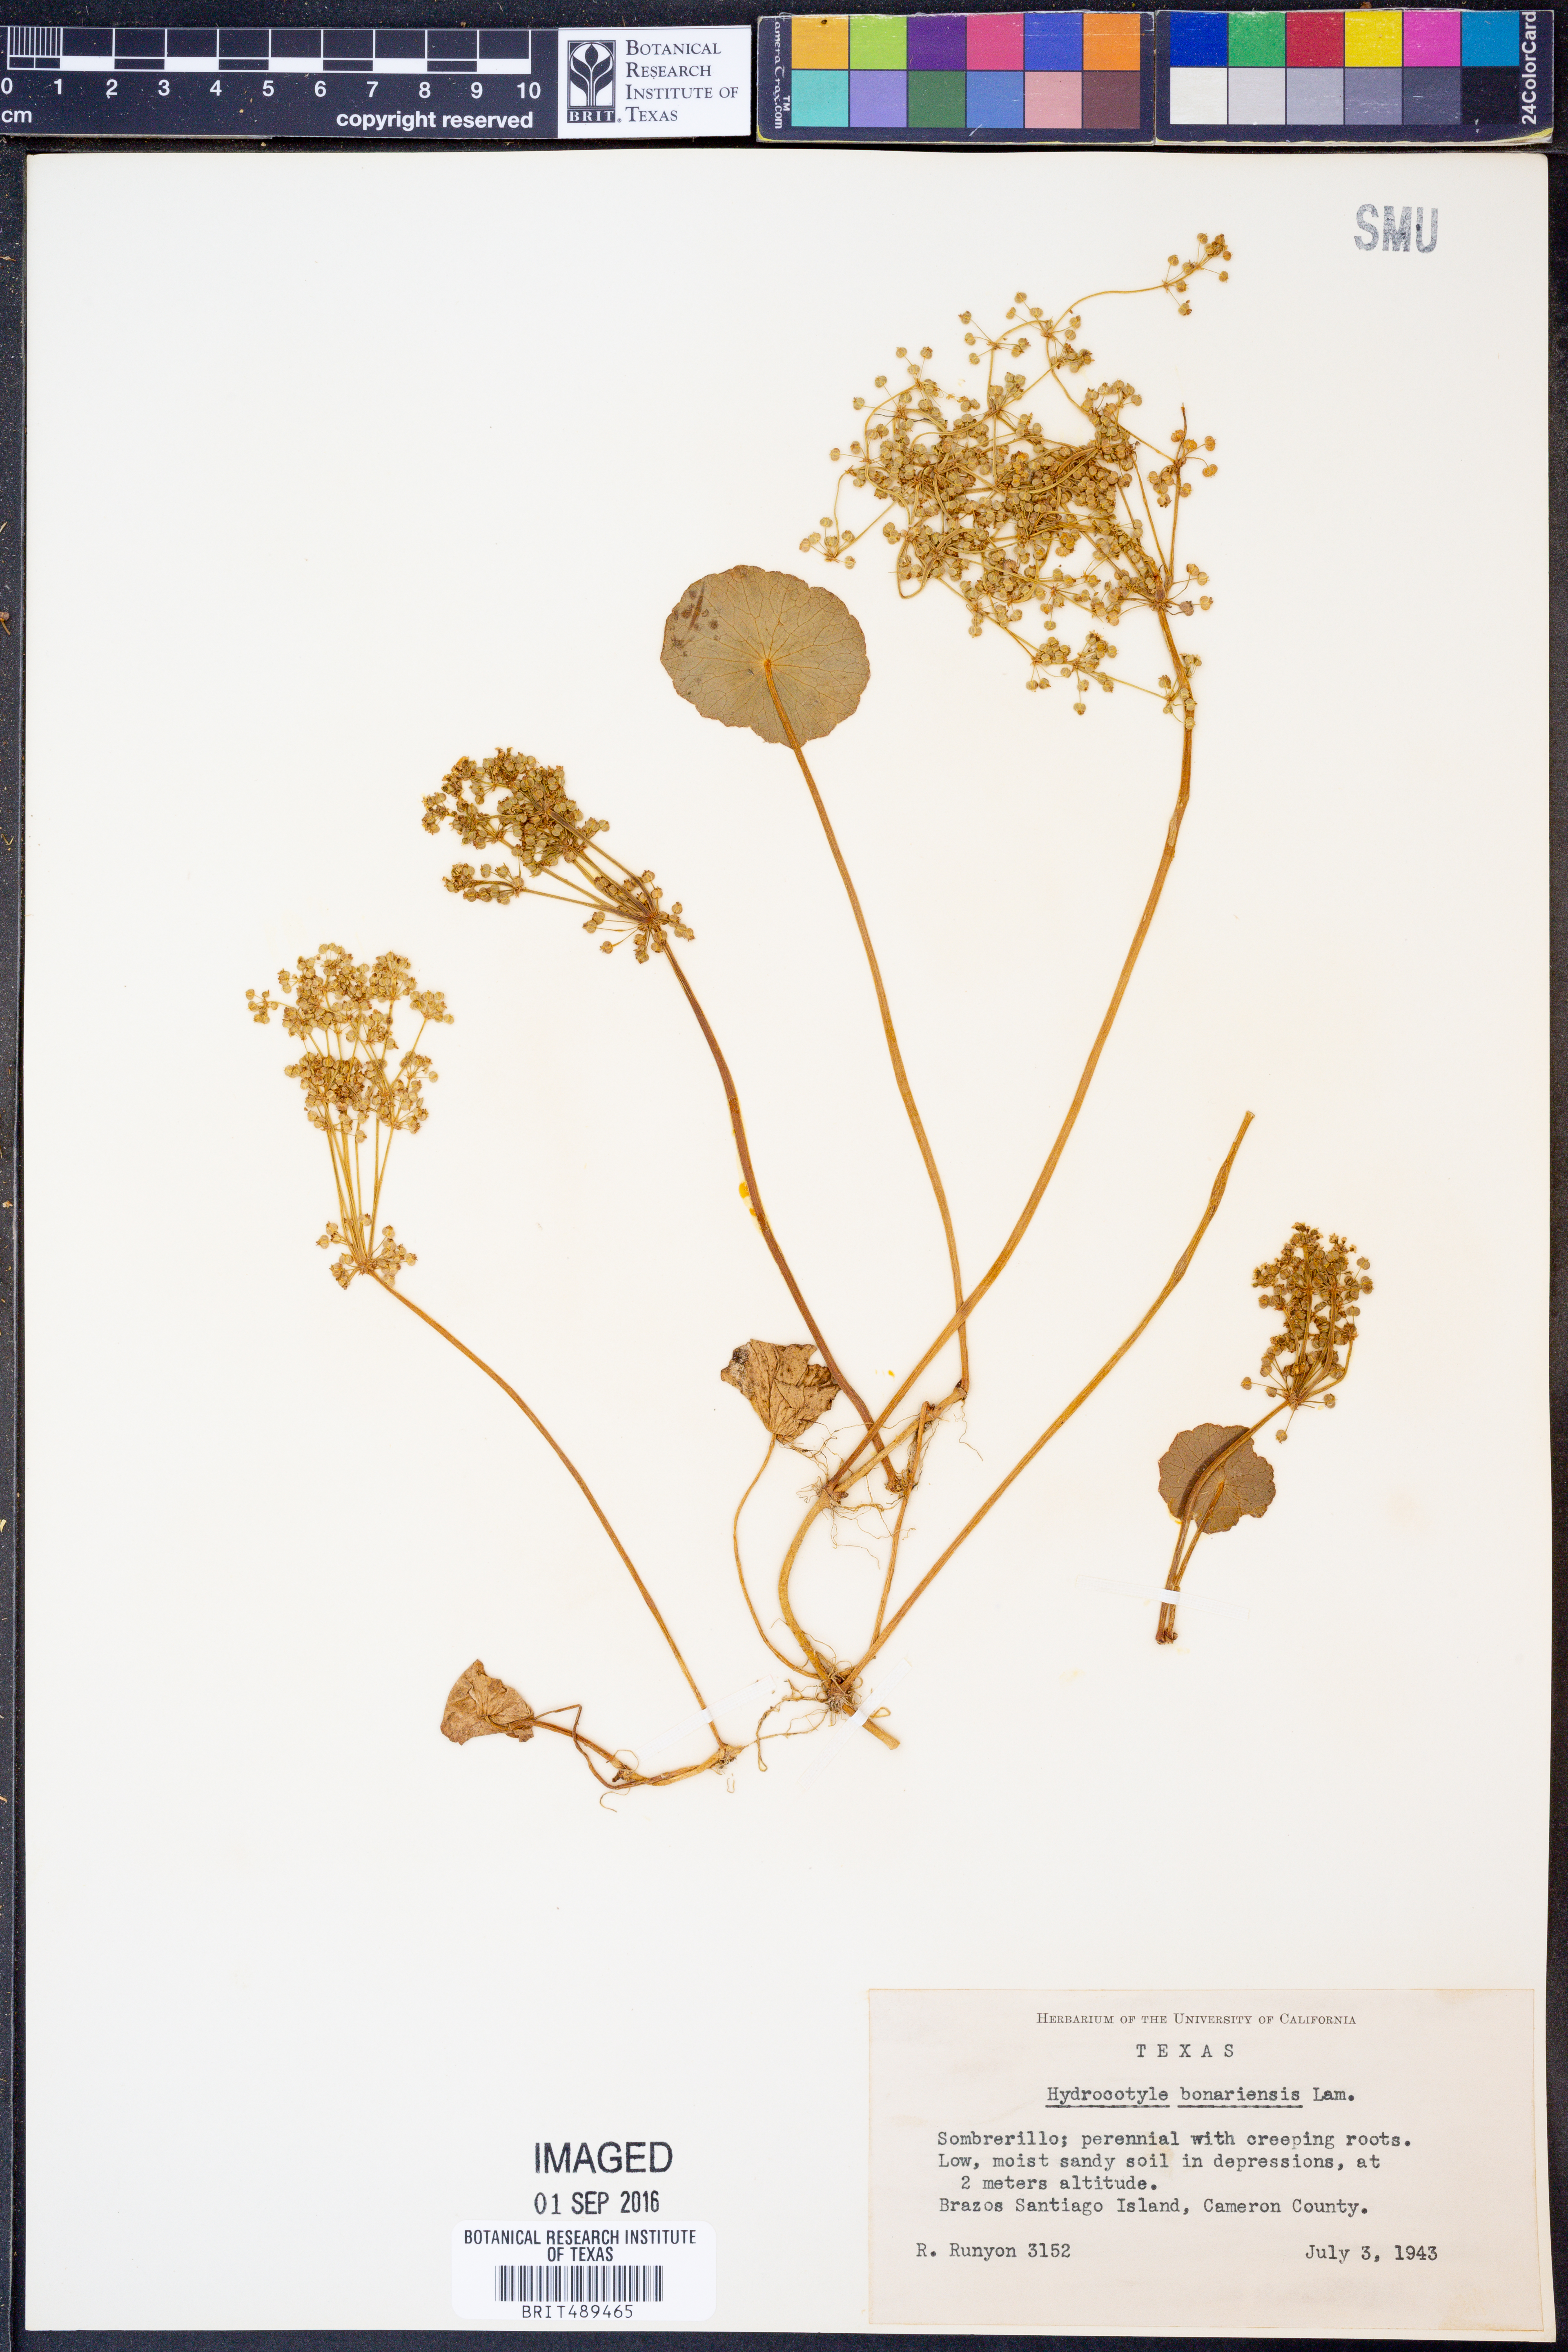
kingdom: Plantae
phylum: Tracheophyta
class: Magnoliopsida
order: Apiales
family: Araliaceae
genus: Hydrocotyle
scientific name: Hydrocotyle bonariensis
